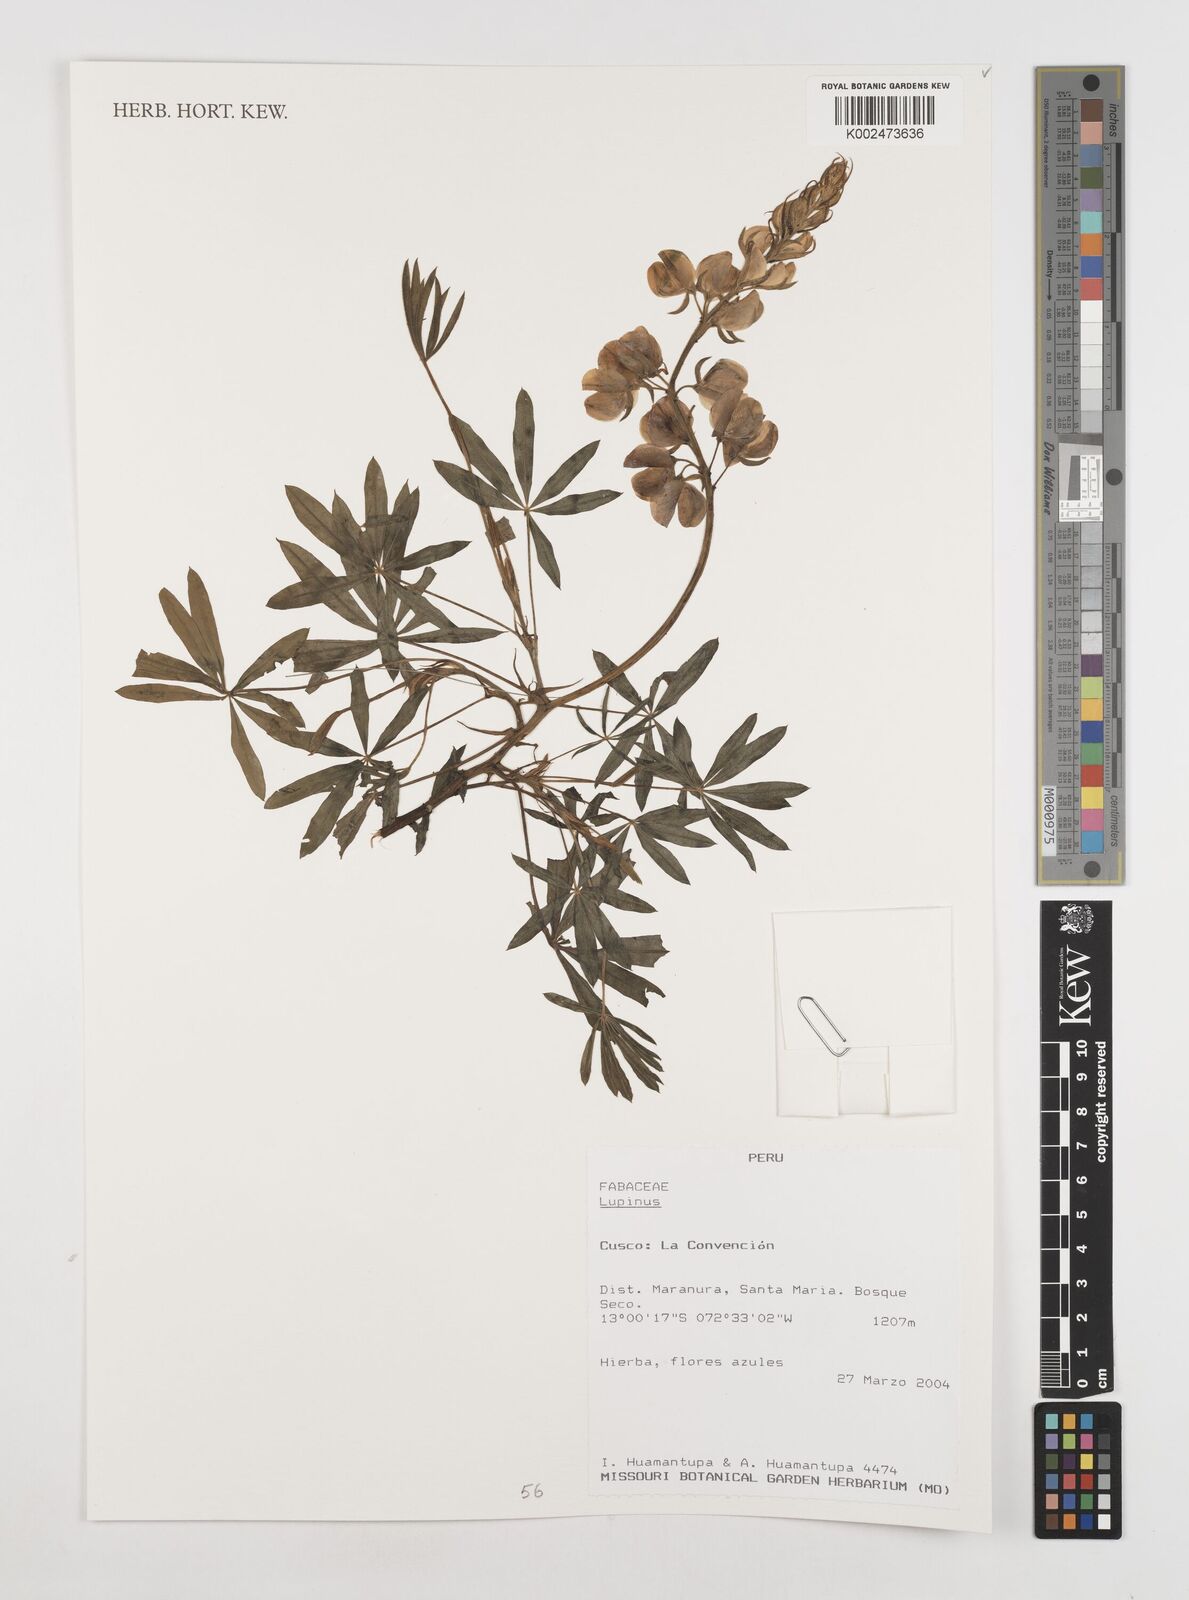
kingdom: Plantae
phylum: Tracheophyta
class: Magnoliopsida
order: Fabales
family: Fabaceae
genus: Lupinus
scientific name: Lupinus
